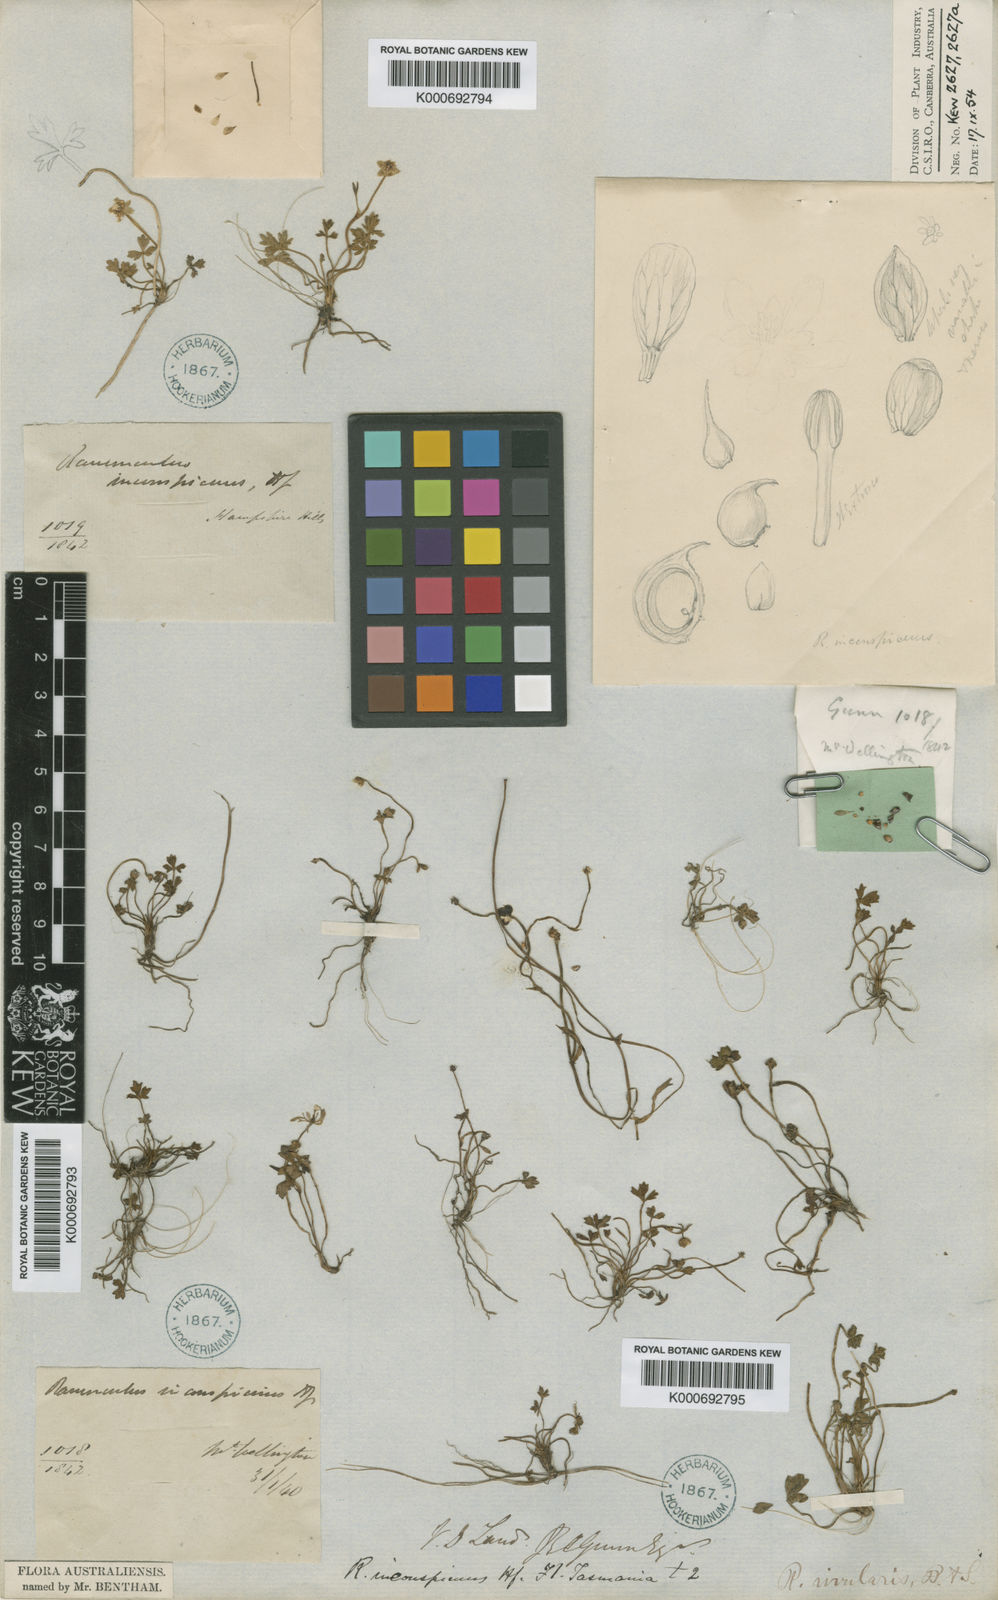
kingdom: Plantae
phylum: Tracheophyta
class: Magnoliopsida
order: Ranunculales
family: Ranunculaceae
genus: Ranunculus
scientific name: Ranunculus collinus
